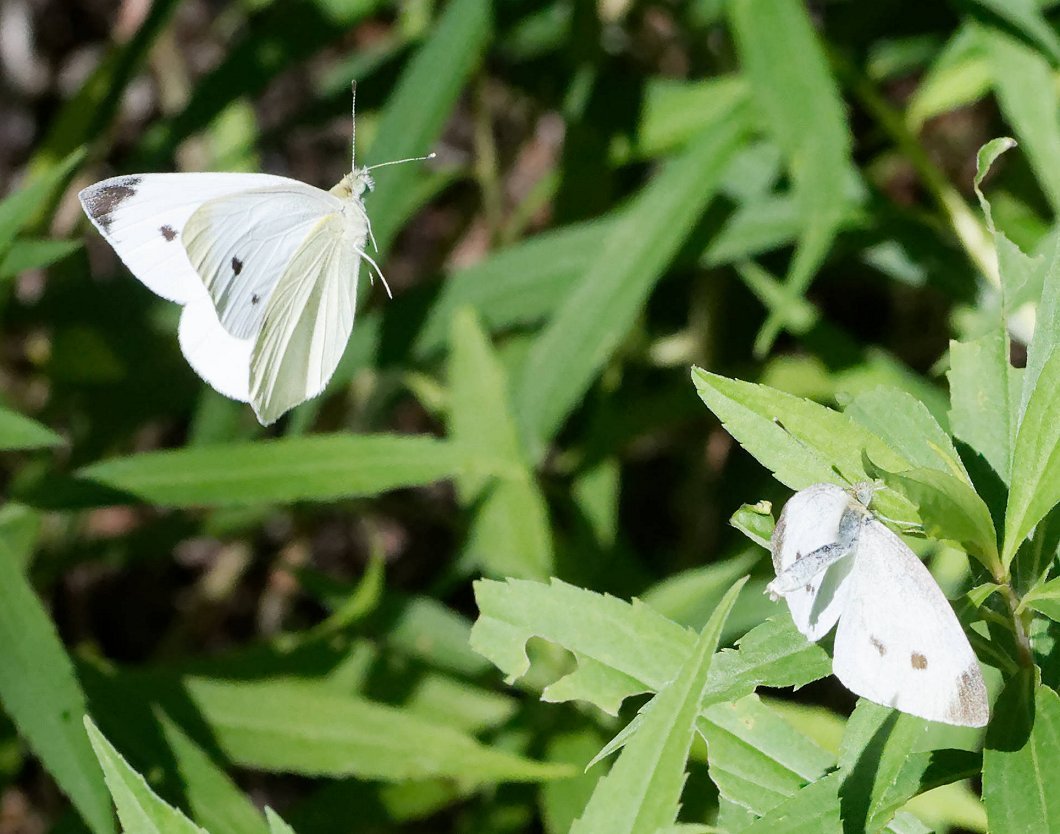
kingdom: Animalia
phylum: Arthropoda
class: Insecta
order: Lepidoptera
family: Pieridae
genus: Pieris
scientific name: Pieris rapae
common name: Cabbage White
